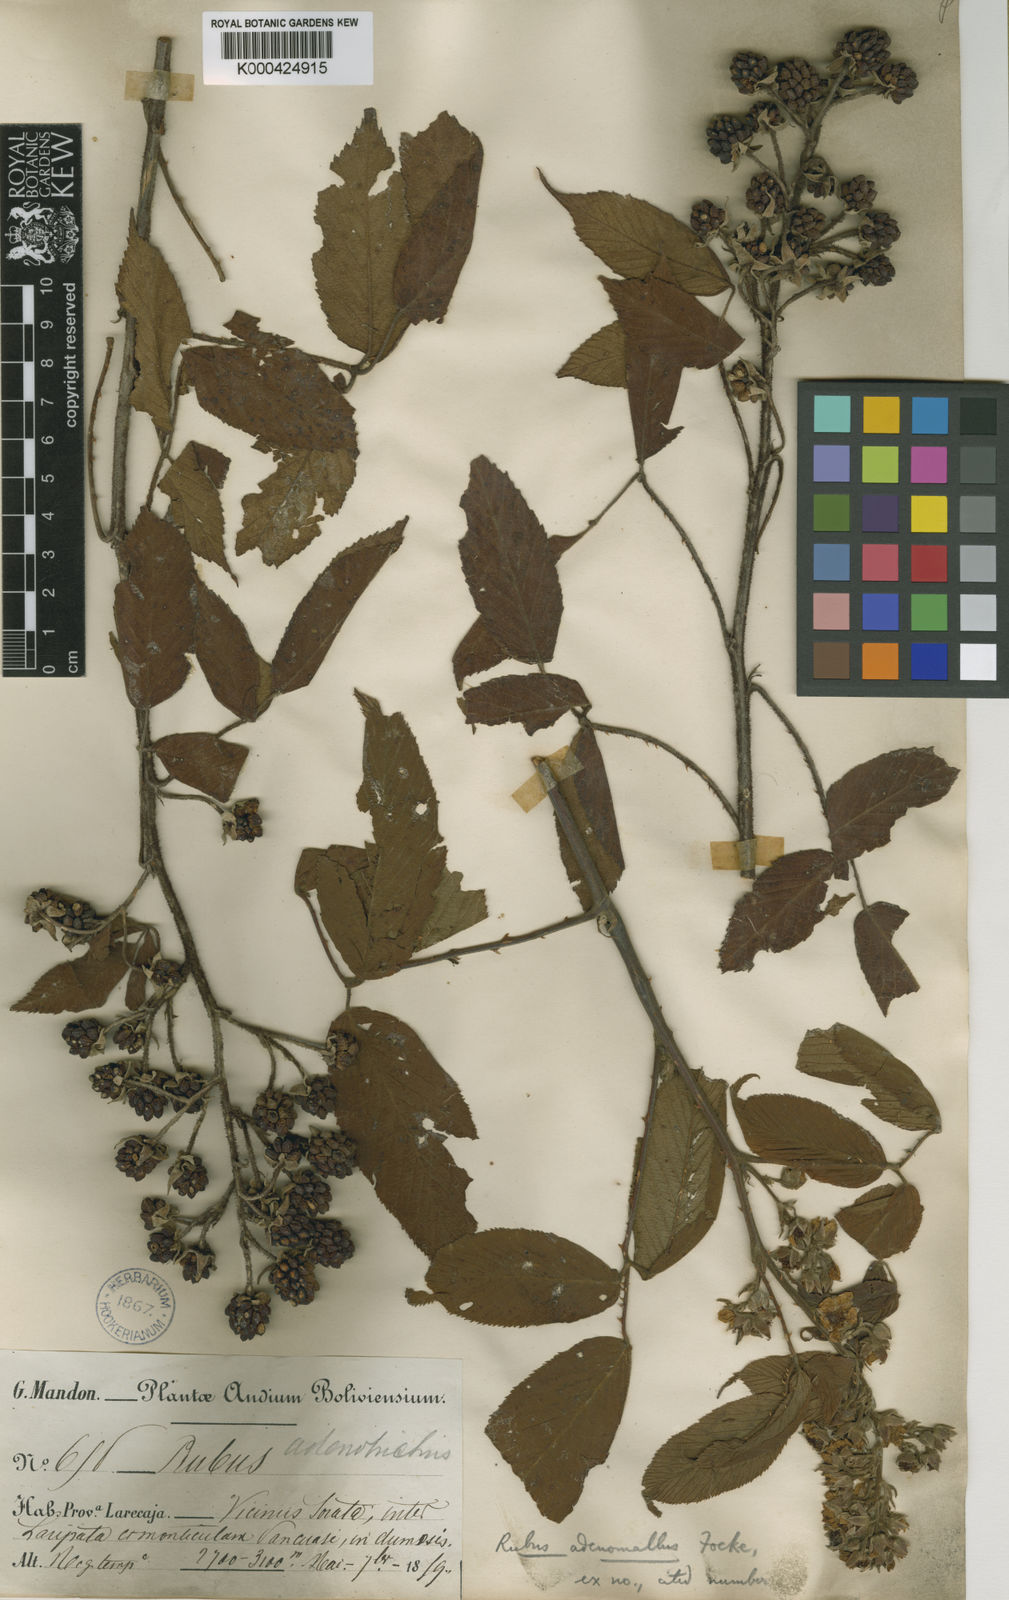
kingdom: Plantae
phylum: Tracheophyta
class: Magnoliopsida
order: Rosales
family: Rosaceae
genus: Rubus
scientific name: Rubus adenomallus
